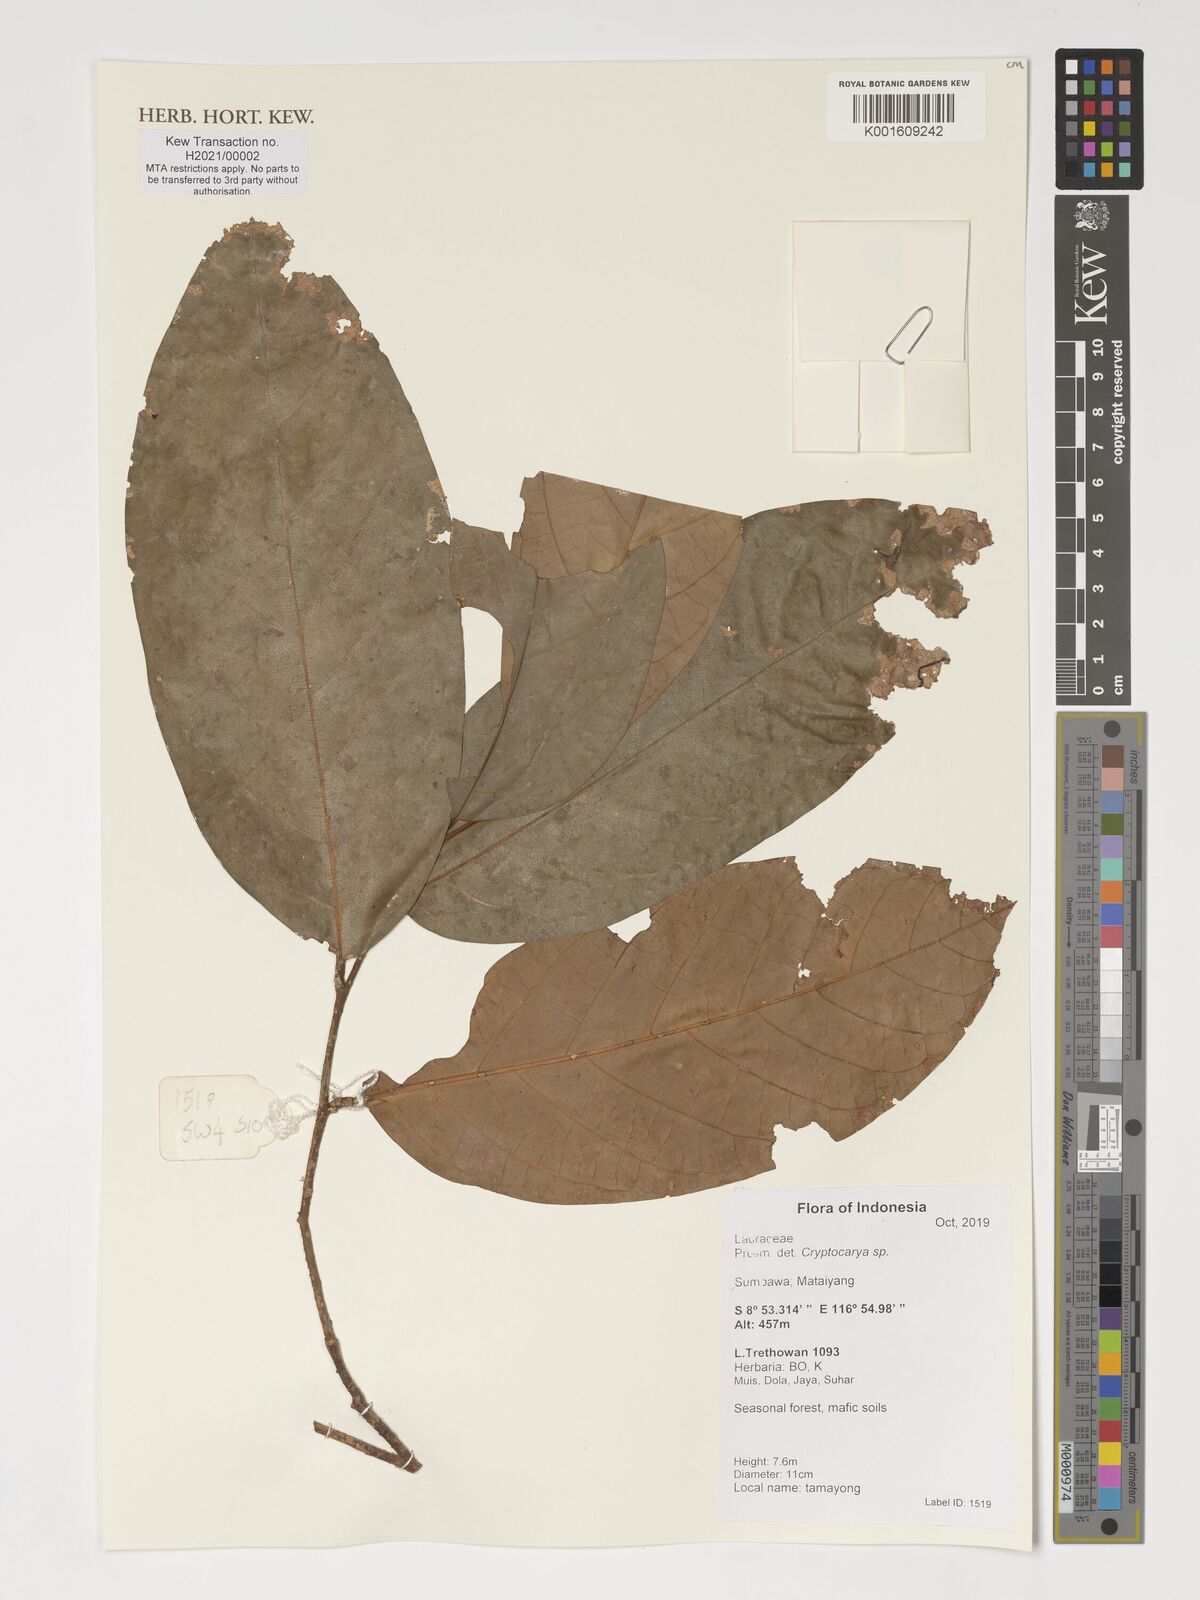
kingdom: Plantae
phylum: Tracheophyta
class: Magnoliopsida
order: Laurales
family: Lauraceae
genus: Cryptocarya
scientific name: Cryptocarya
